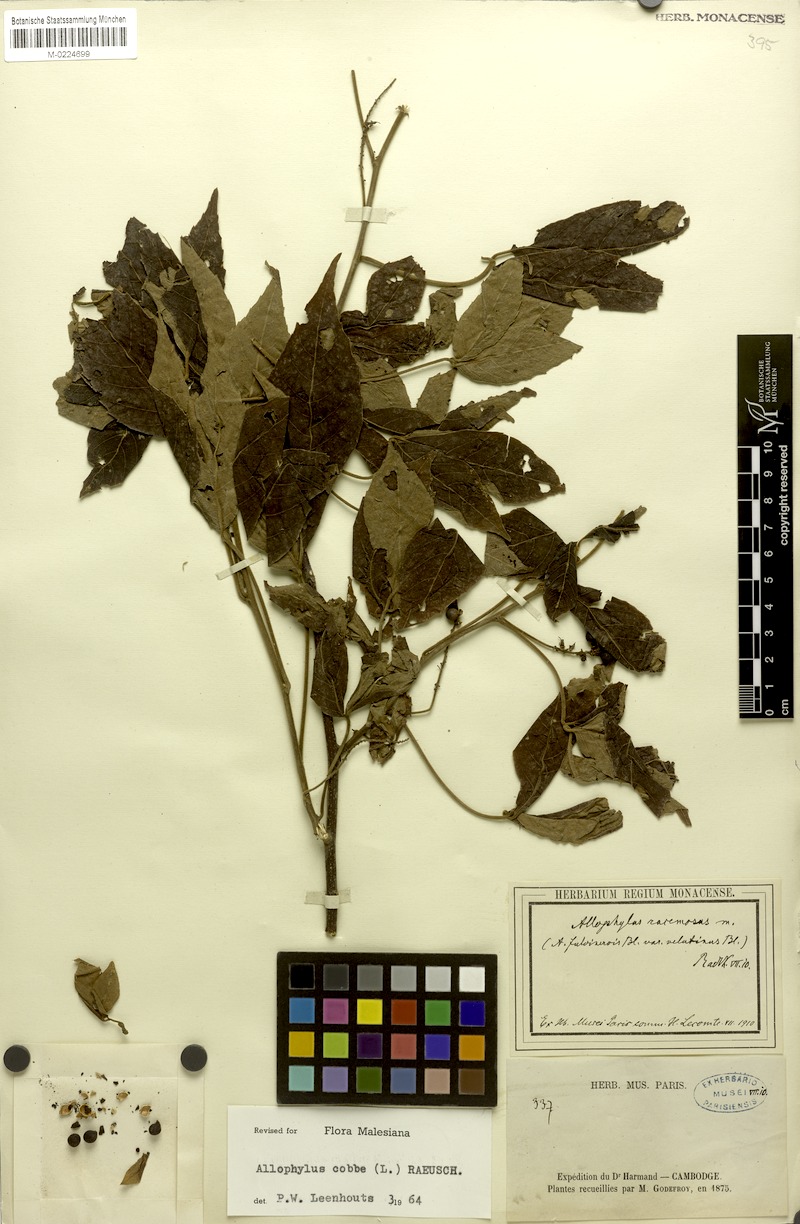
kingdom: Plantae
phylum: Tracheophyta
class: Magnoliopsida
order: Sapindales
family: Sapindaceae
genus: Allophylus
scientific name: Allophylus racemosus
